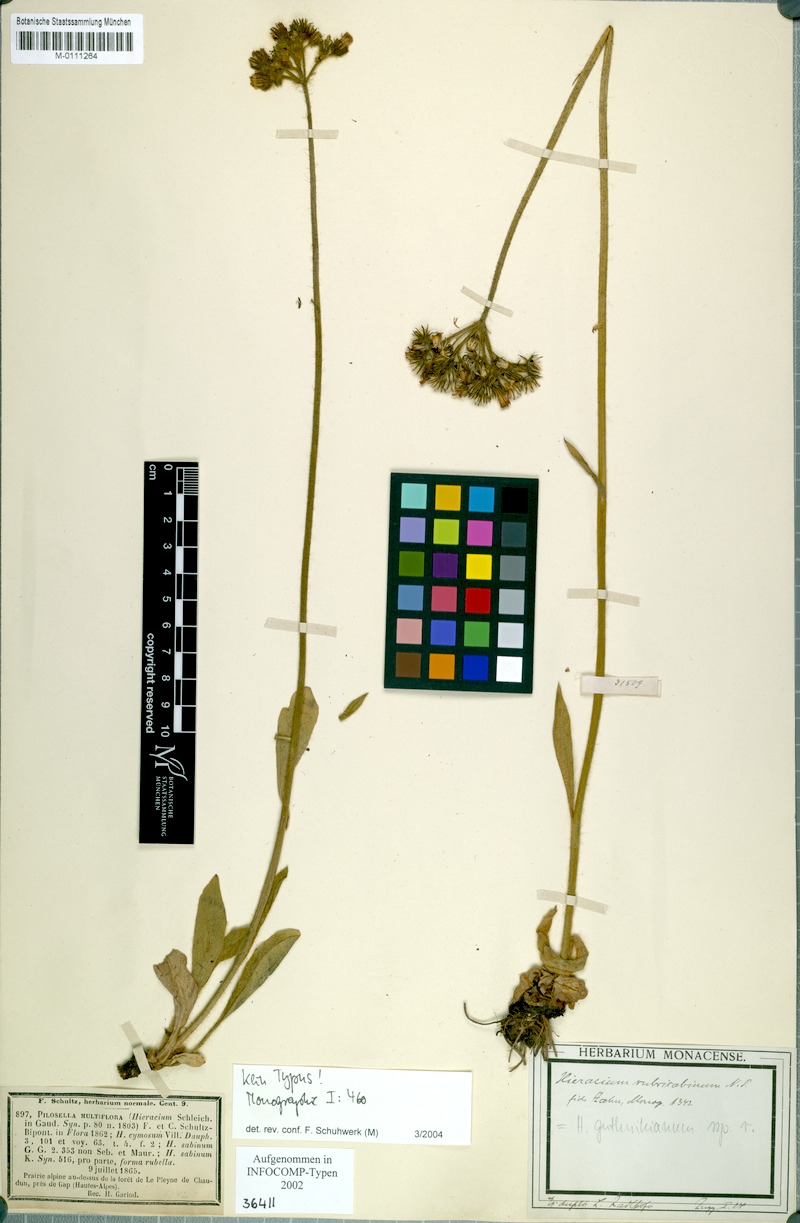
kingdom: Plantae
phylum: Tracheophyta
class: Magnoliopsida
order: Asterales
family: Asteraceae
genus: Pilosella
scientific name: Pilosella guthnikiana
